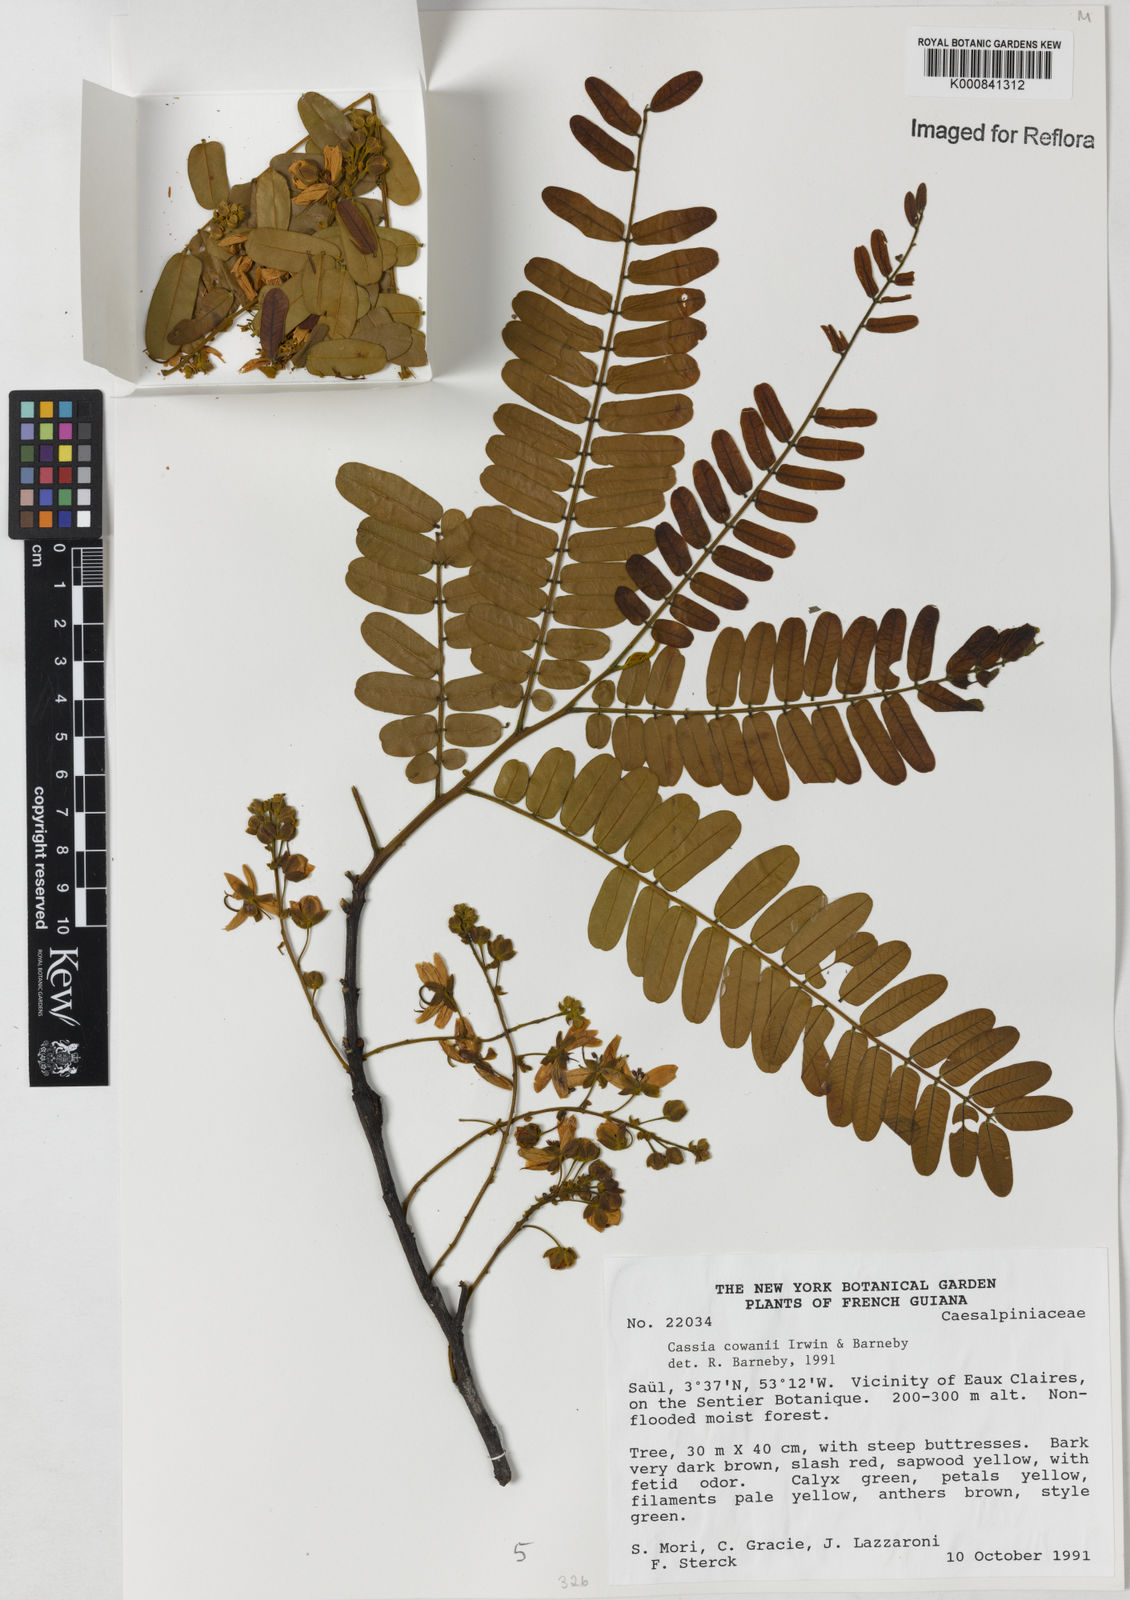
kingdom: Plantae
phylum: Tracheophyta
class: Magnoliopsida
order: Fabales
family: Fabaceae
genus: Cassia
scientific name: Cassia cowanii
